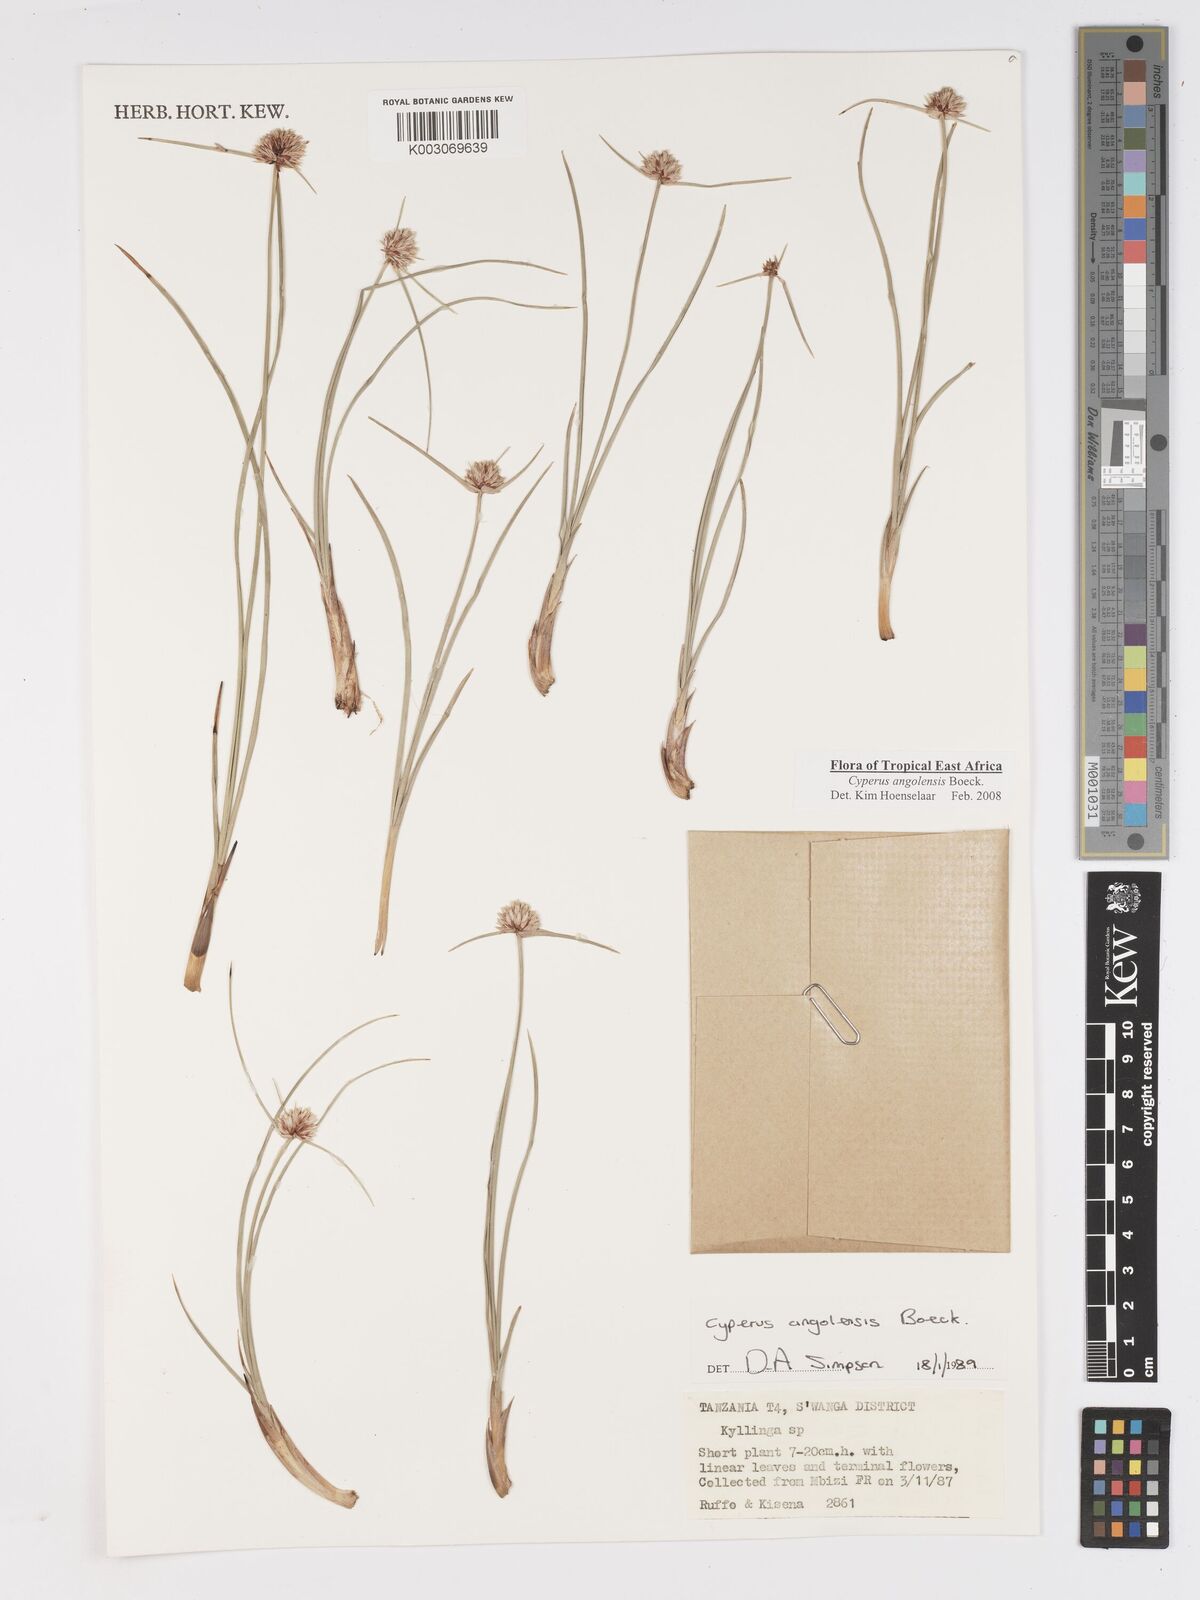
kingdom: Plantae
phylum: Tracheophyta
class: Liliopsida
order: Poales
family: Cyperaceae
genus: Cyperus
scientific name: Cyperus angolensis
